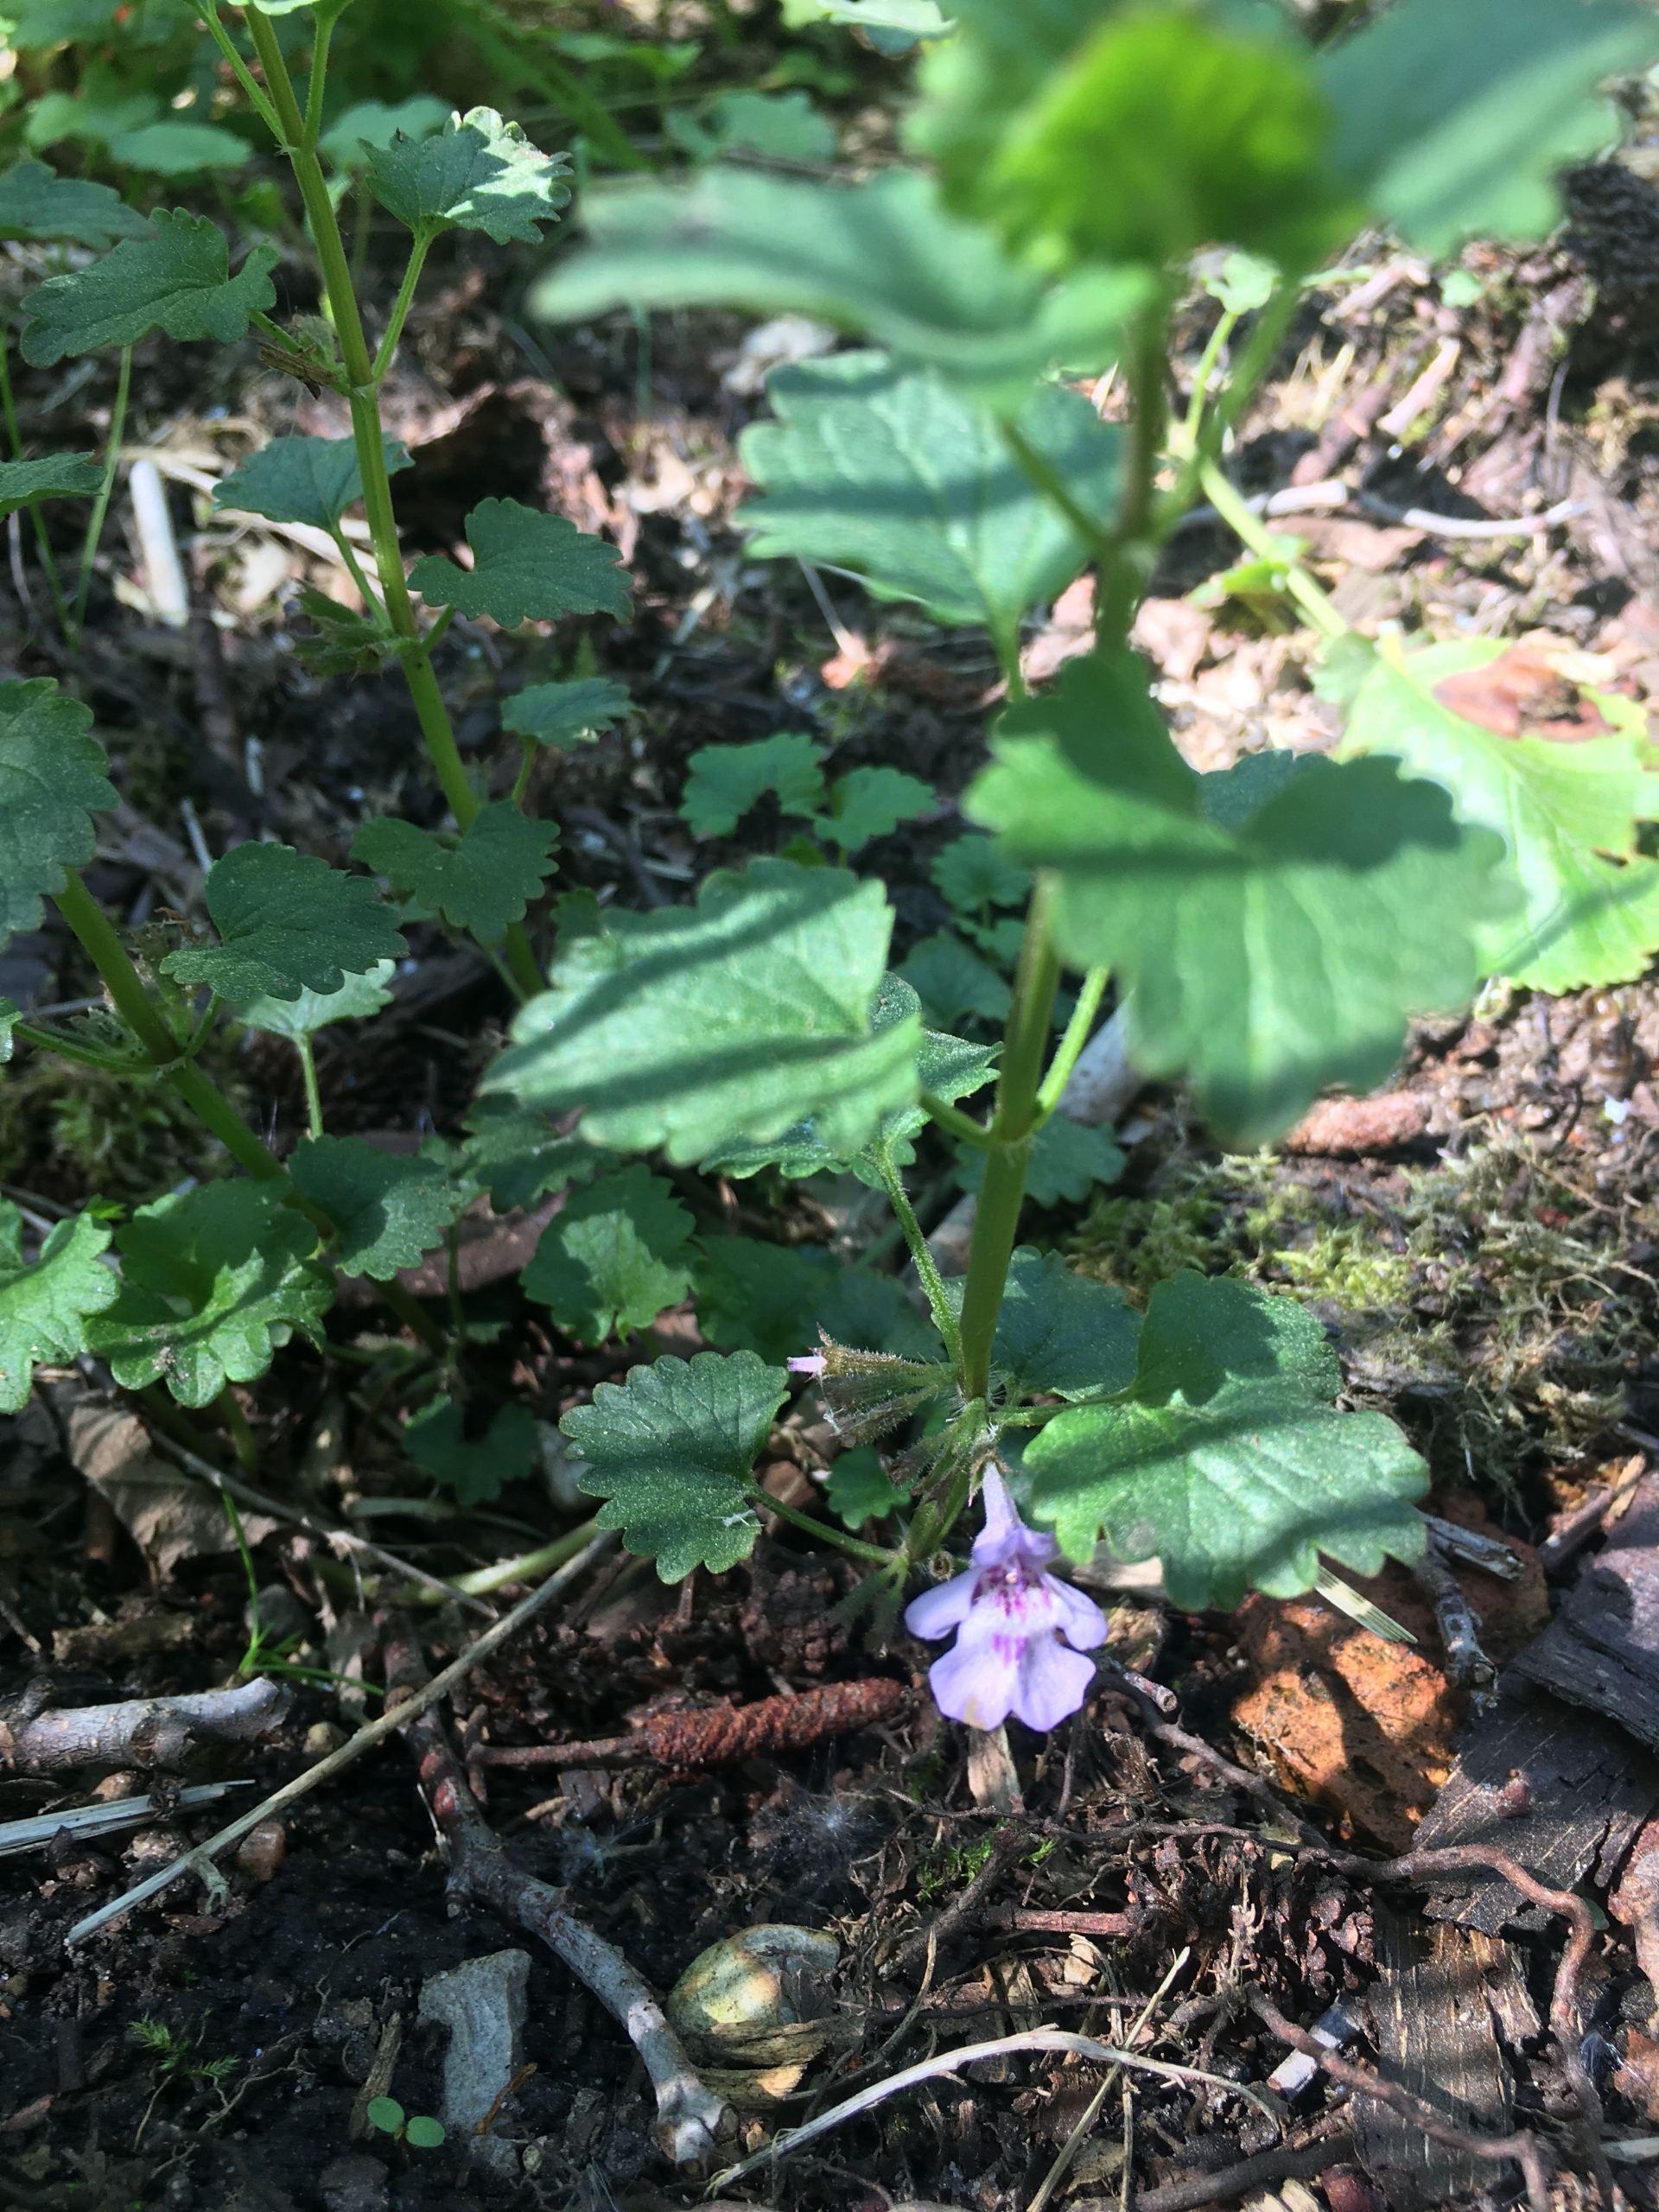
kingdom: Plantae
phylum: Tracheophyta
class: Magnoliopsida
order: Lamiales
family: Lamiaceae
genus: Glechoma
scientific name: Glechoma hederacea
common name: Korsknap
